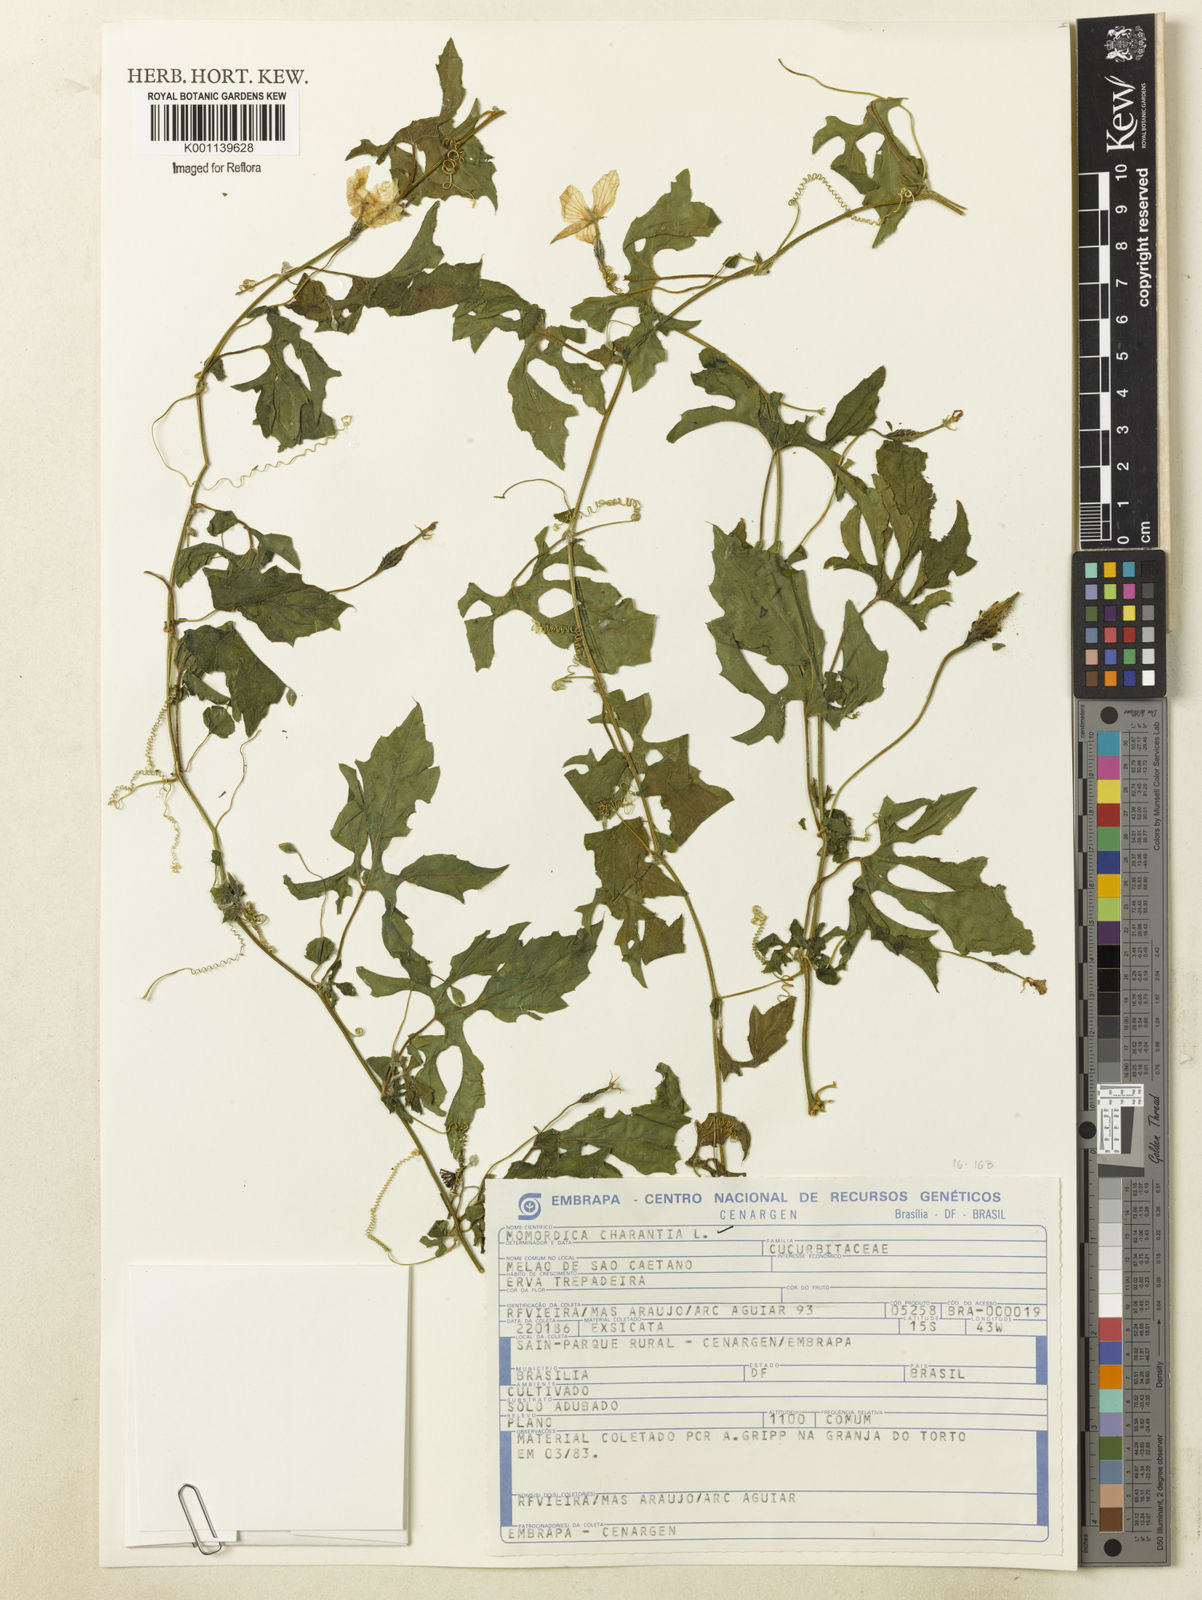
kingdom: Plantae
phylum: Tracheophyta
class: Magnoliopsida
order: Cucurbitales
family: Cucurbitaceae
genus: Momordica
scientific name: Momordica charantia
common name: Balsampear
